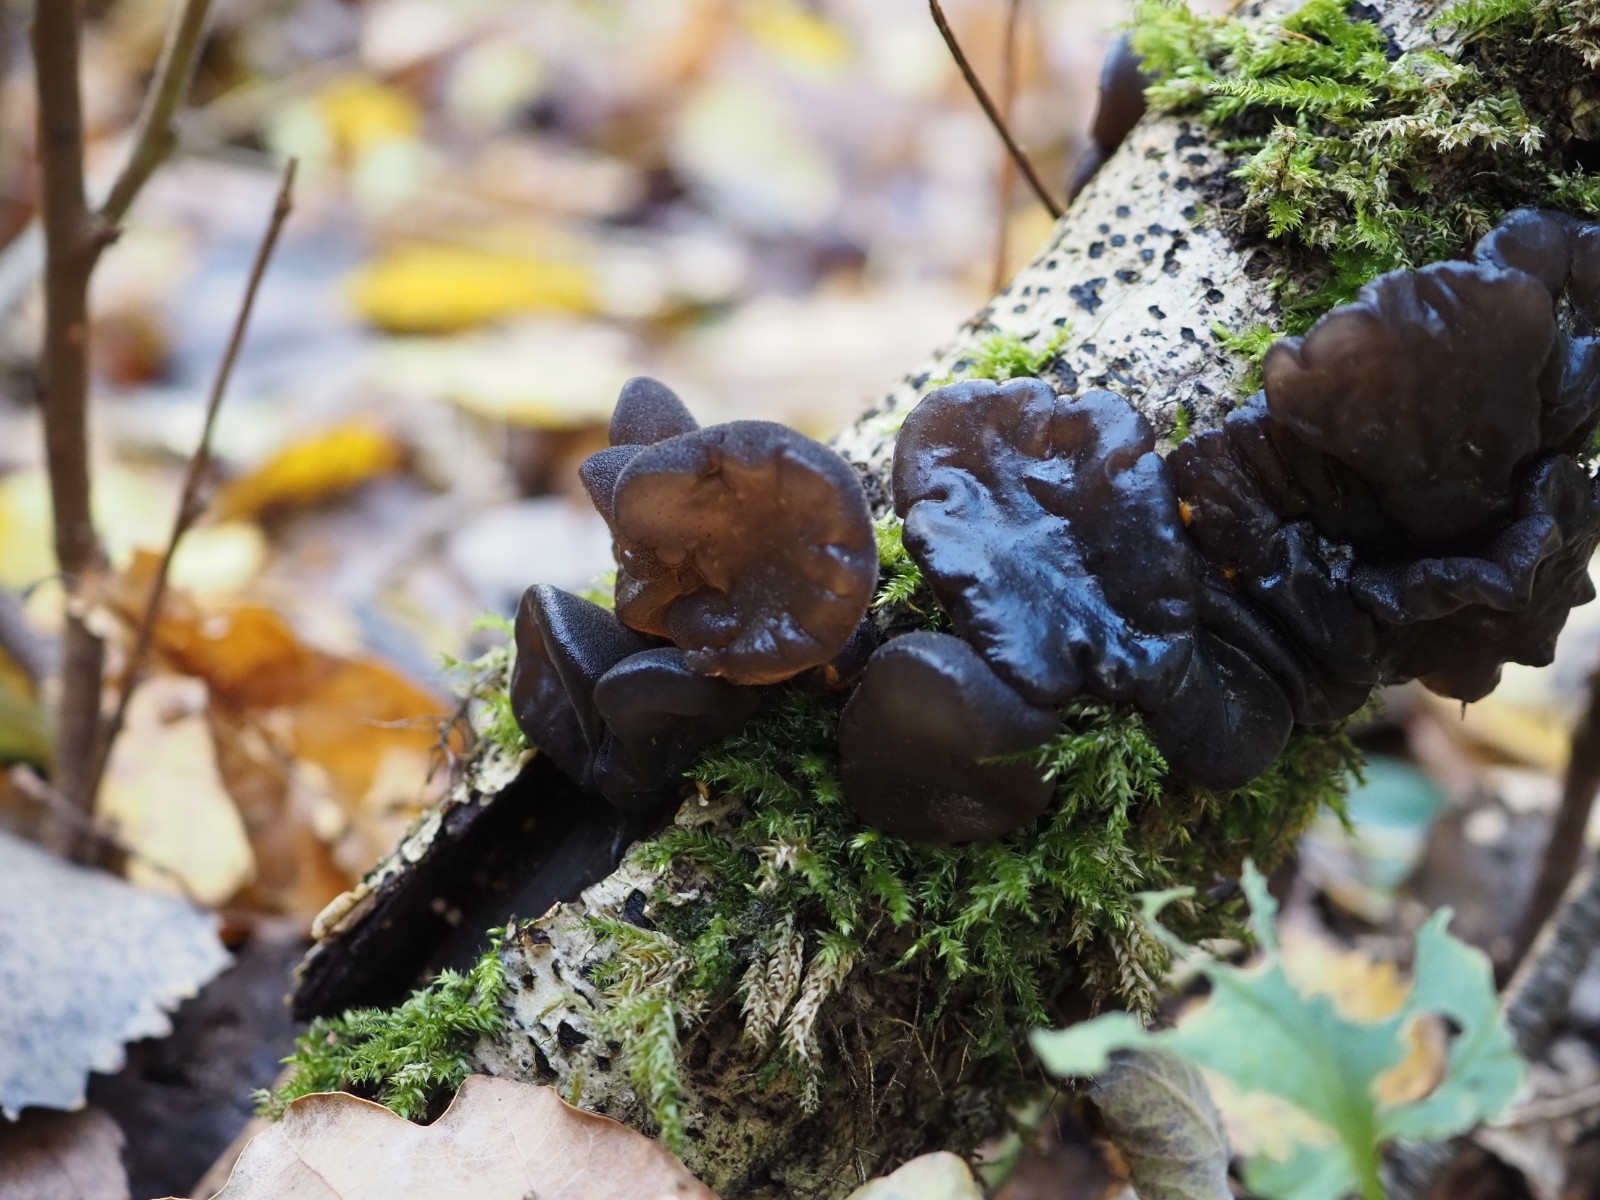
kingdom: Fungi
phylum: Basidiomycota
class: Agaricomycetes
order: Auriculariales
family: Auriculariaceae
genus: Exidia
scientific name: Exidia glandulosa
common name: ege-bævretop
